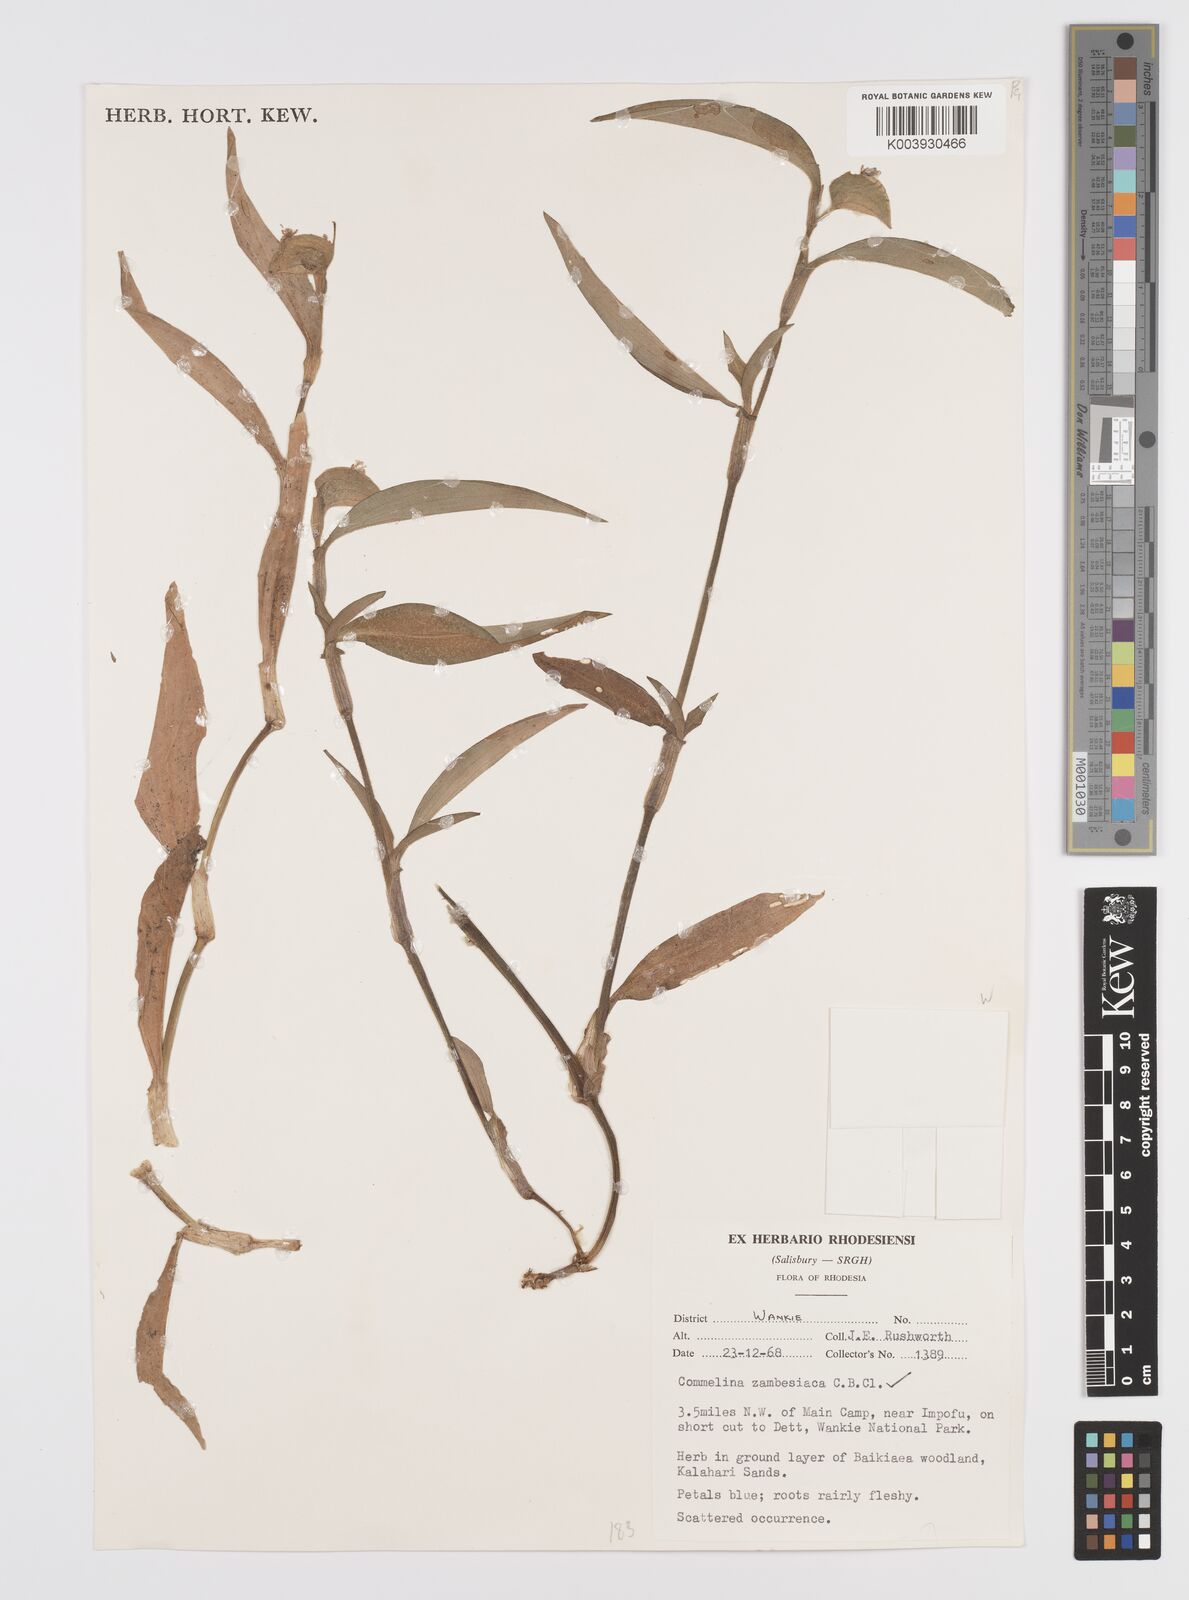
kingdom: Plantae
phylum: Tracheophyta
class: Liliopsida
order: Commelinales
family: Commelinaceae
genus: Commelina
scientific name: Commelina zambesica
